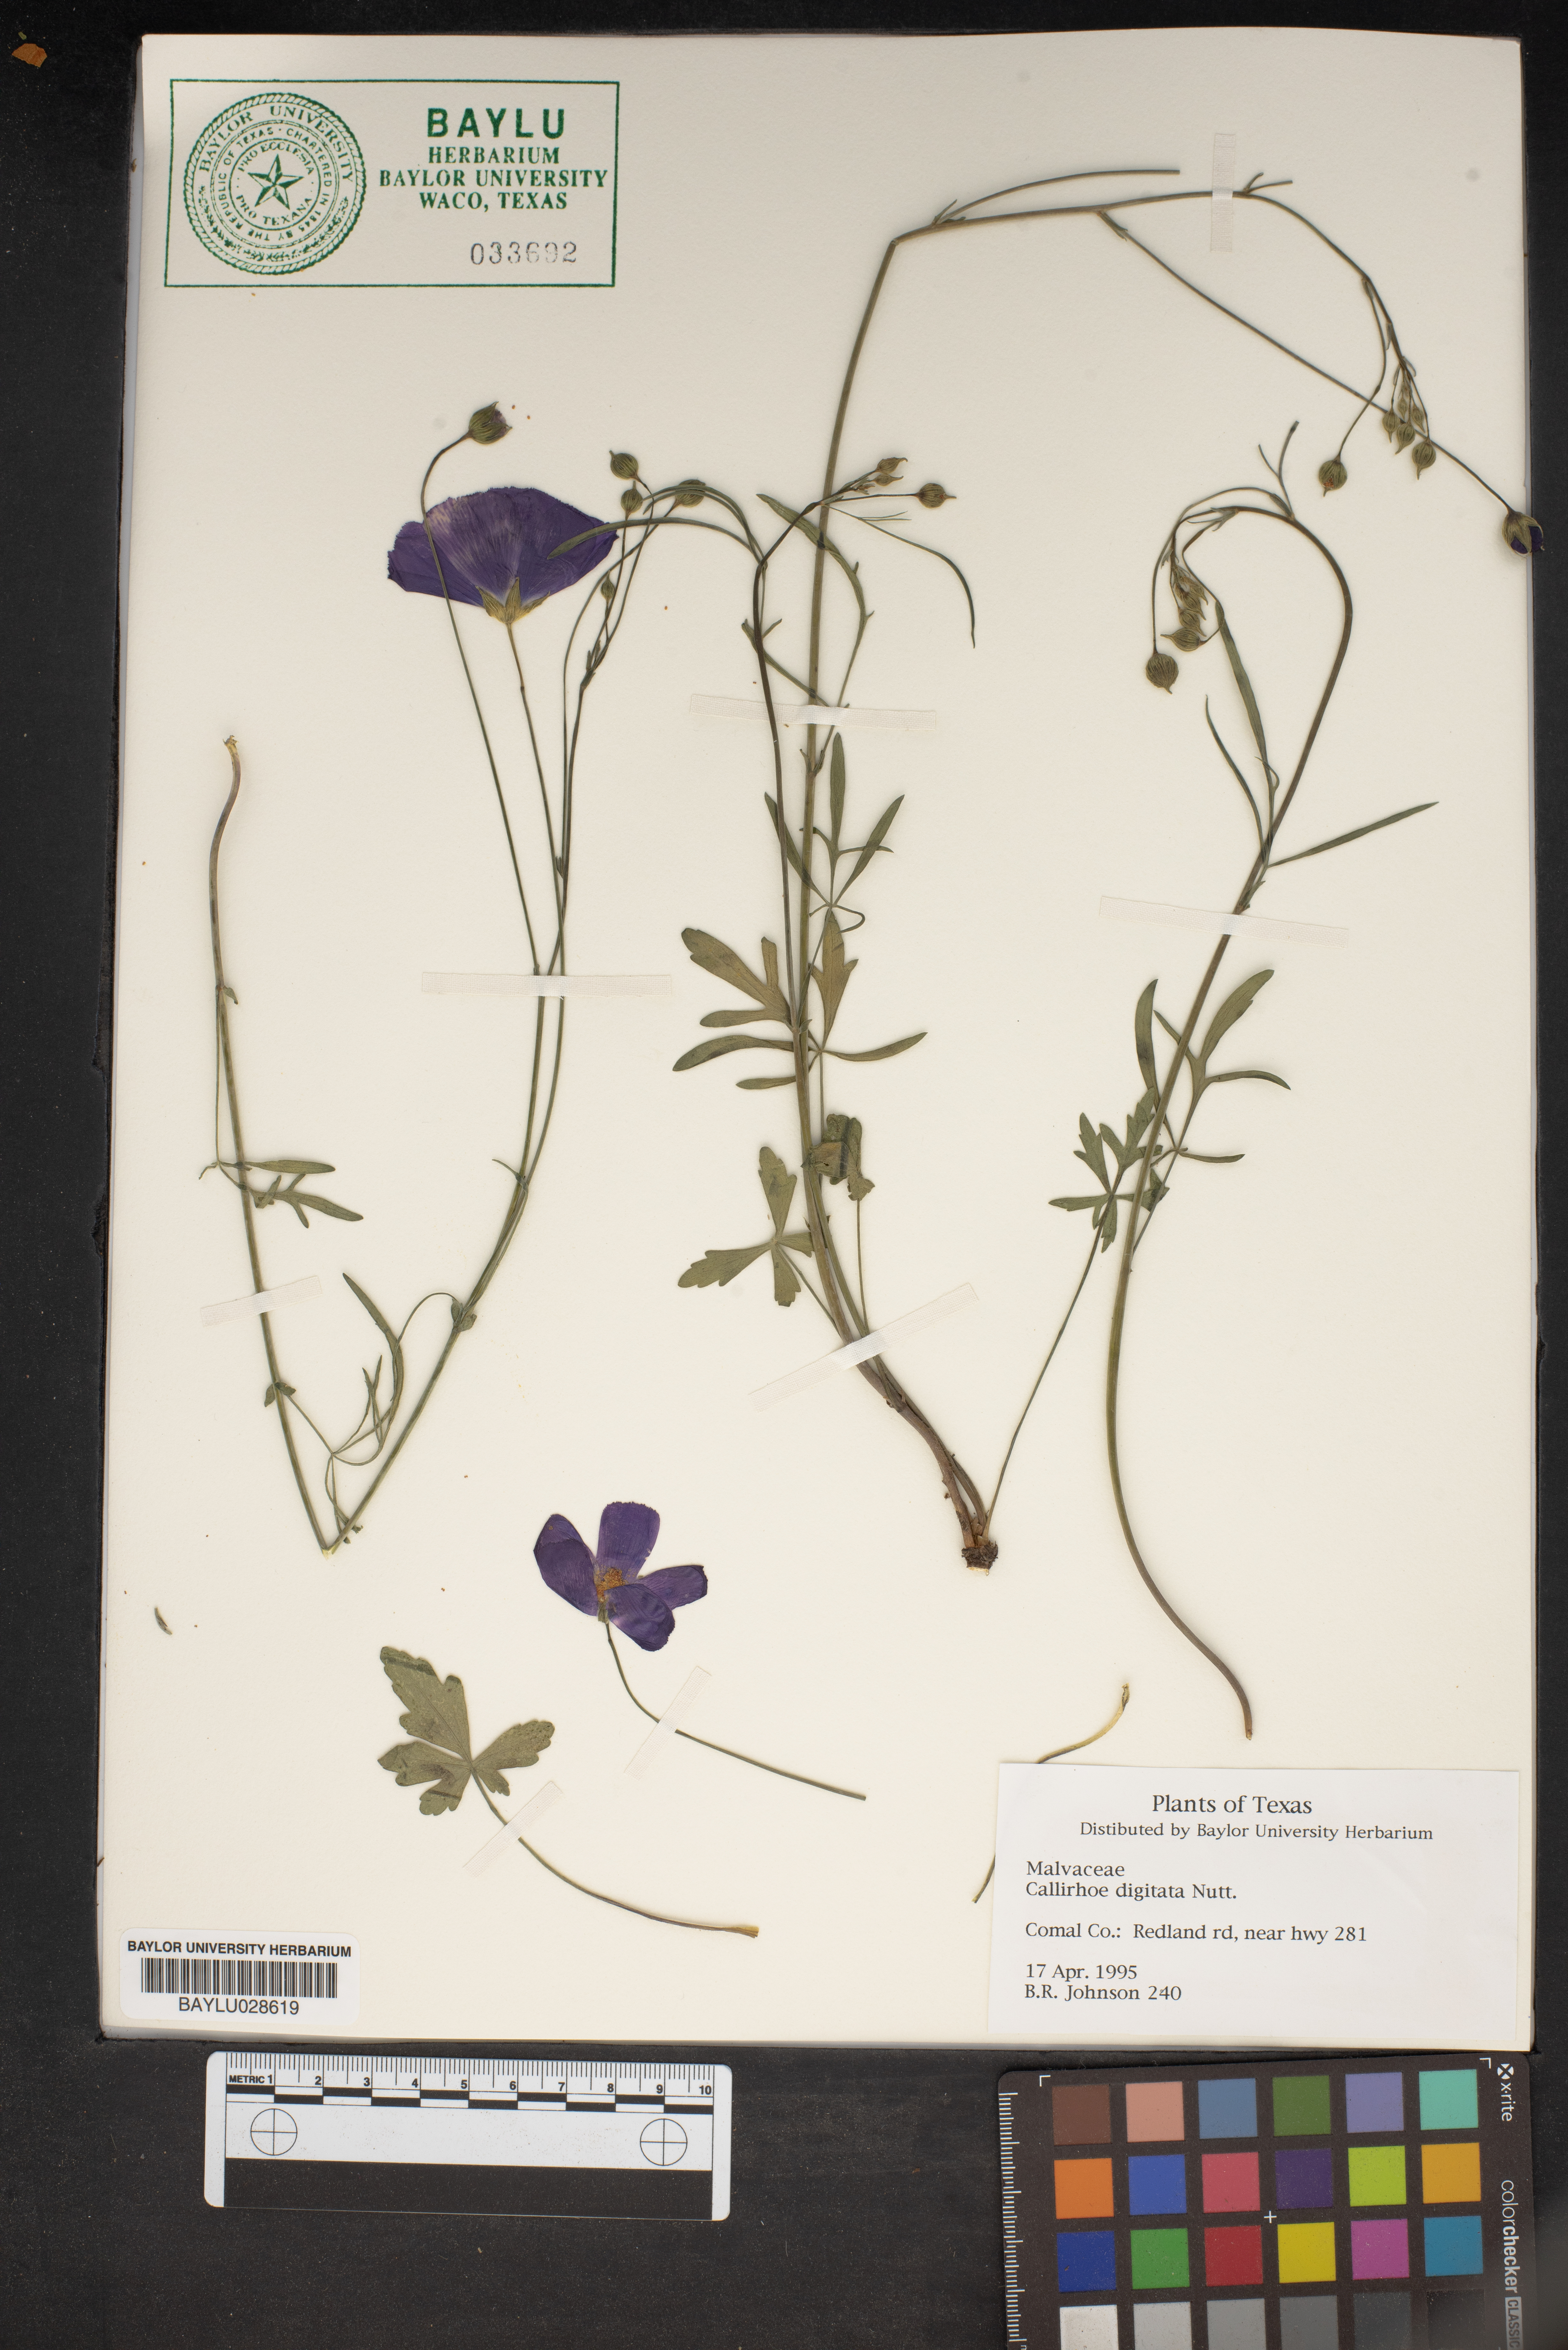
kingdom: Plantae
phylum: Tracheophyta
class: Magnoliopsida
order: Malvales
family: Malvaceae
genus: Callirhoe
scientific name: Callirhoe digitata
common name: Finger poppy-mallow
